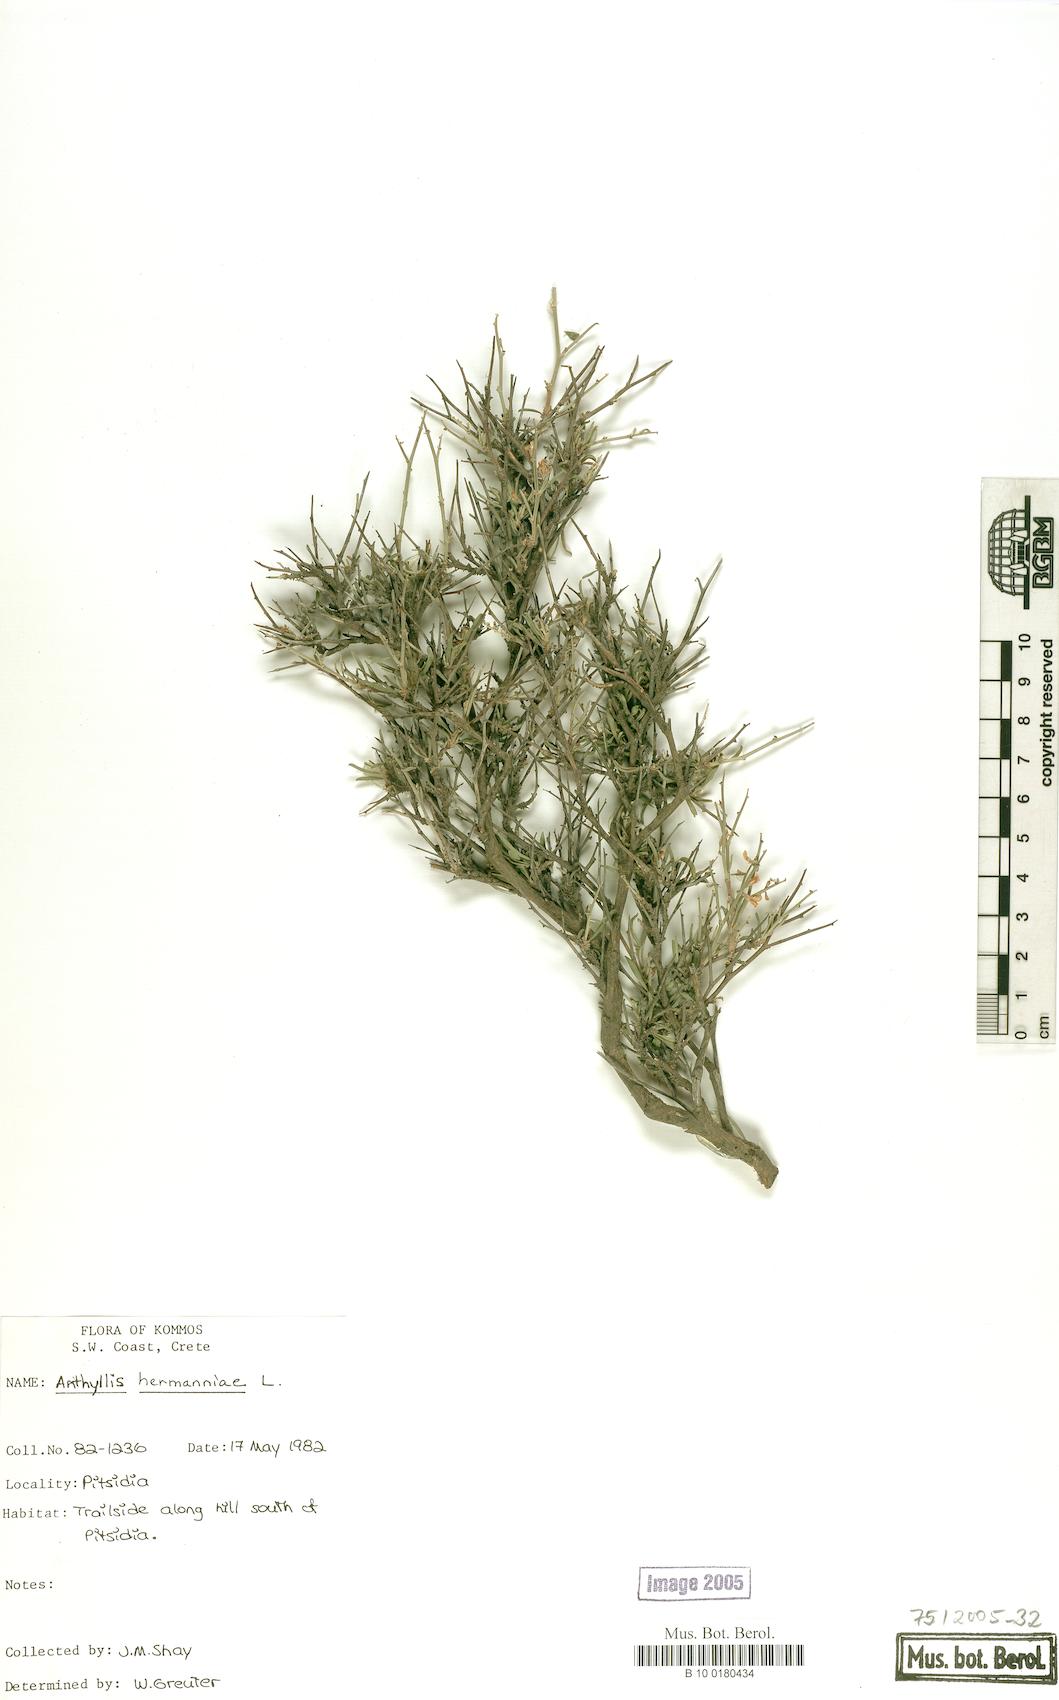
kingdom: Plantae
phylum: Tracheophyta
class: Magnoliopsida
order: Fabales
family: Fabaceae
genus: Anthyllis
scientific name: Anthyllis hermanniae
